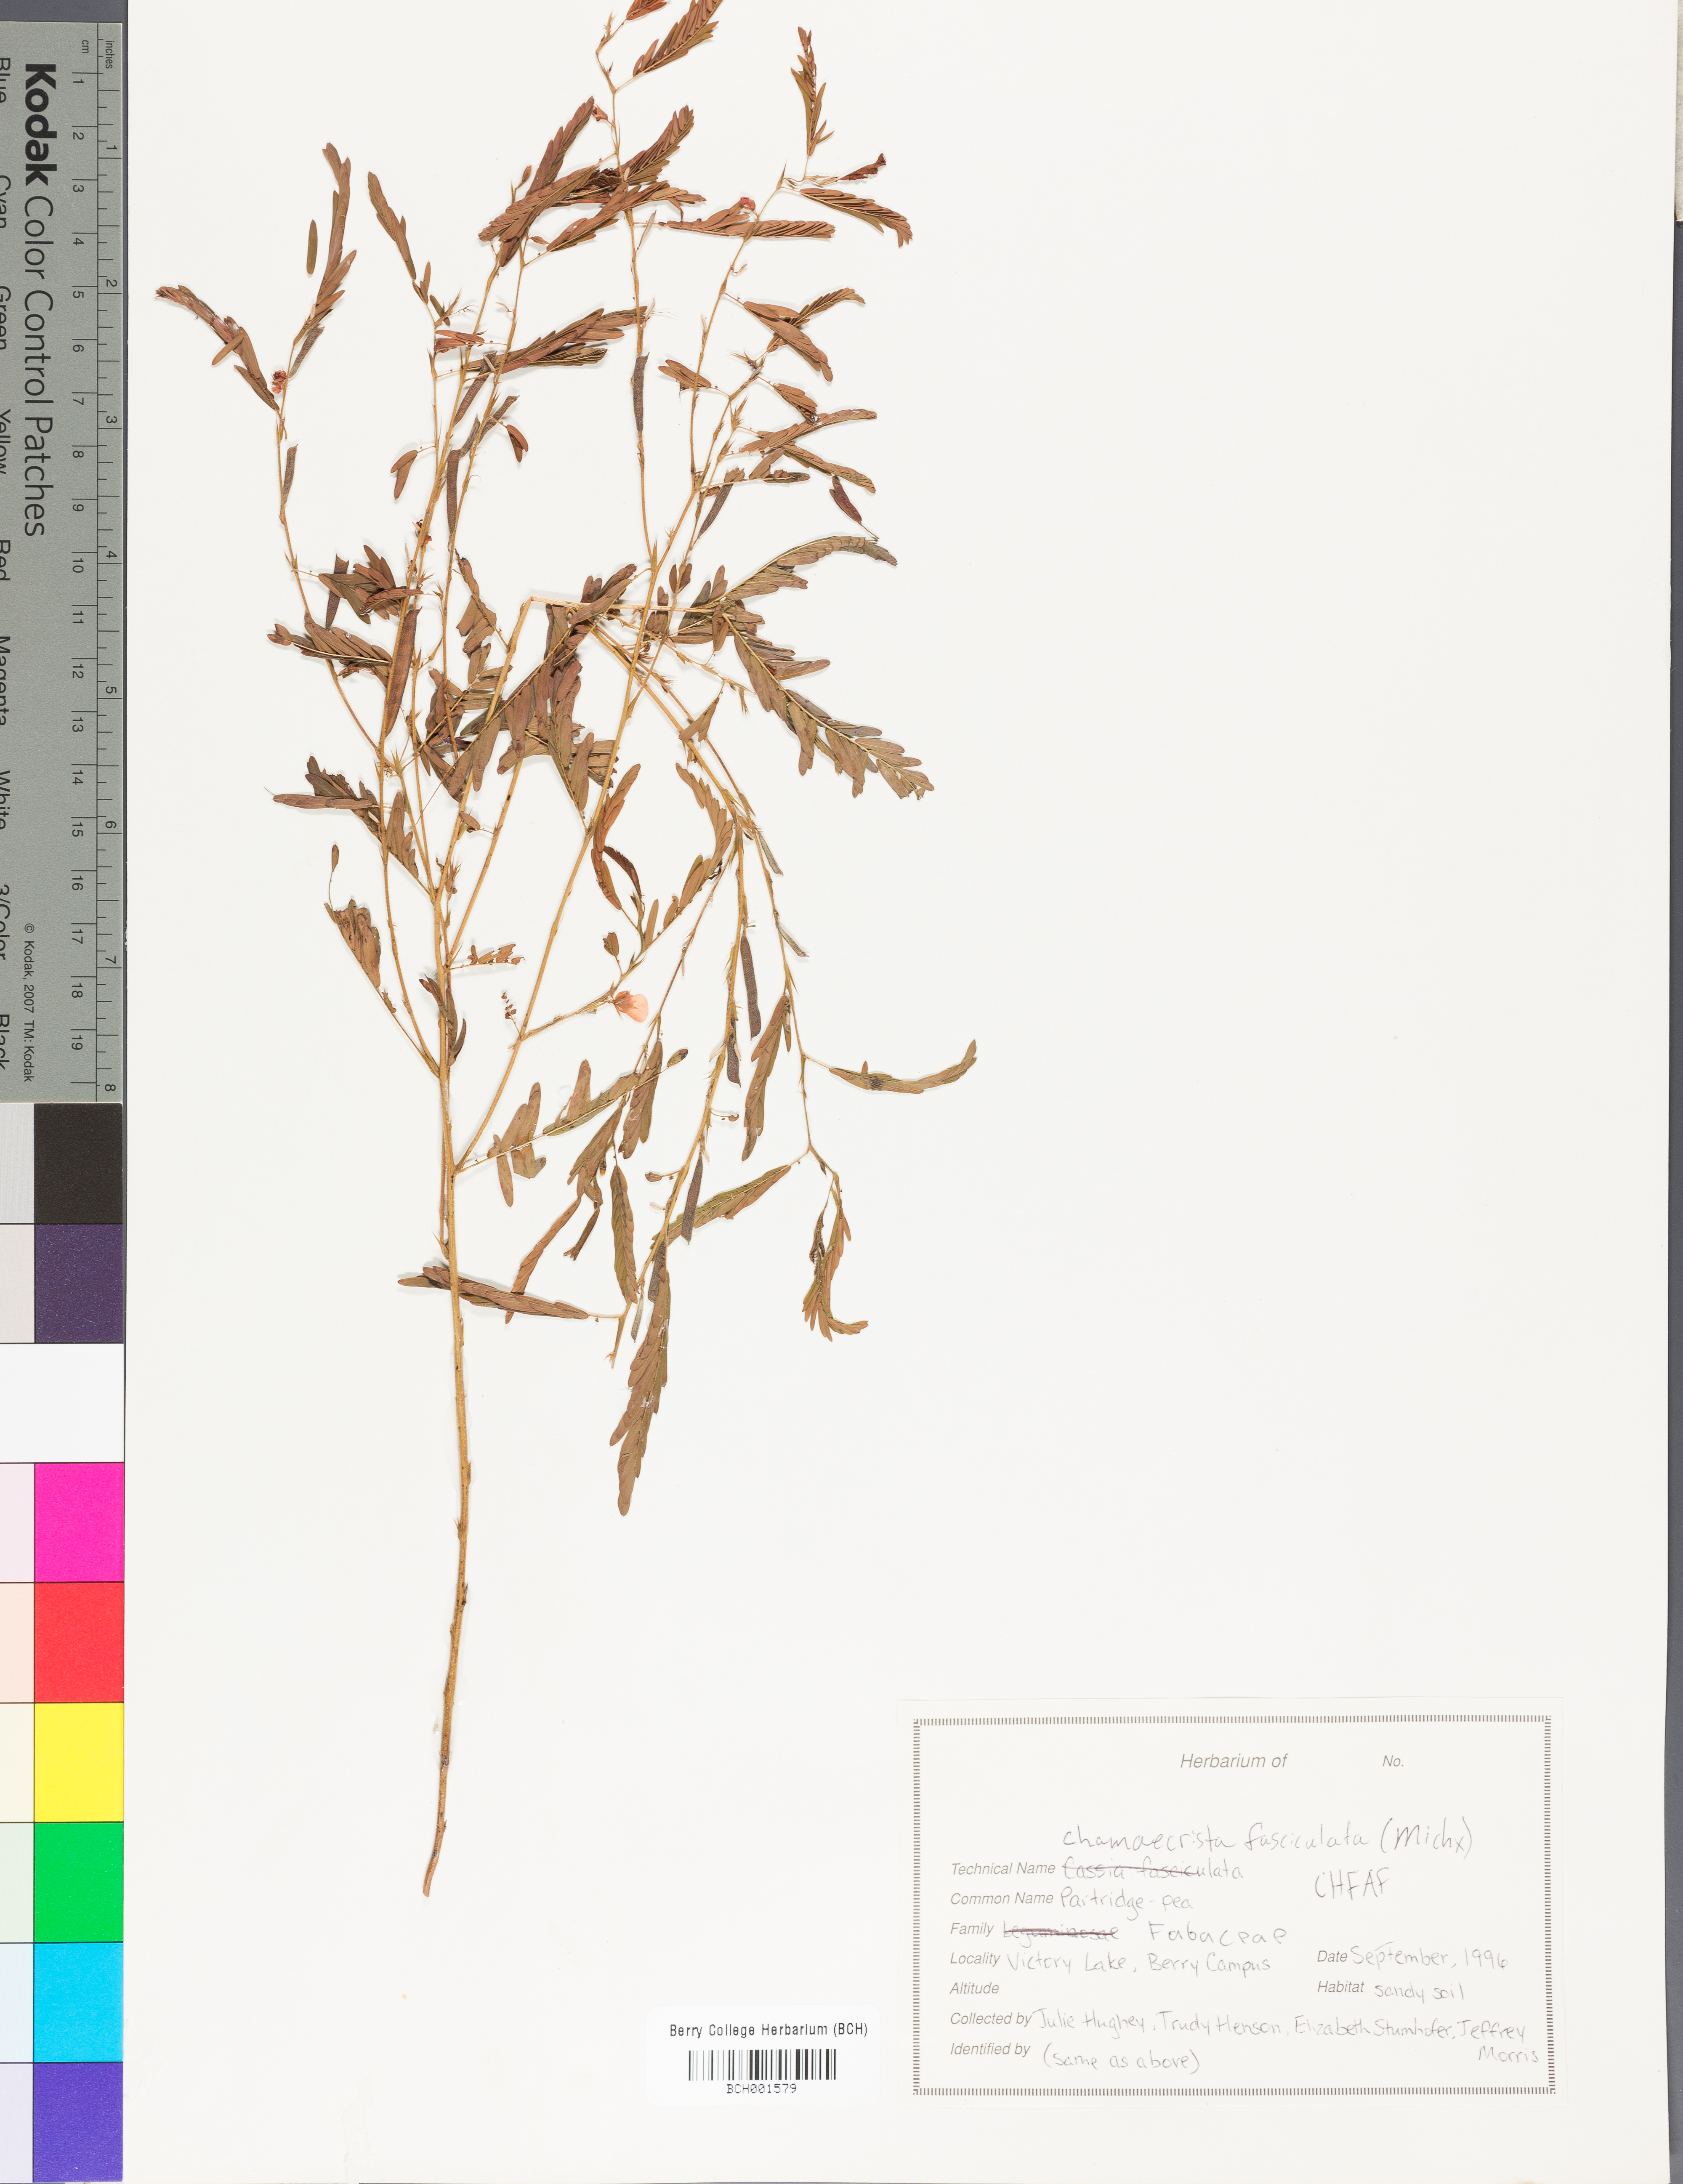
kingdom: Plantae
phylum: Tracheophyta
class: Magnoliopsida
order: Fabales
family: Fabaceae
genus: Chamaecrista
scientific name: Chamaecrista fasciculata
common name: Golden cassia
